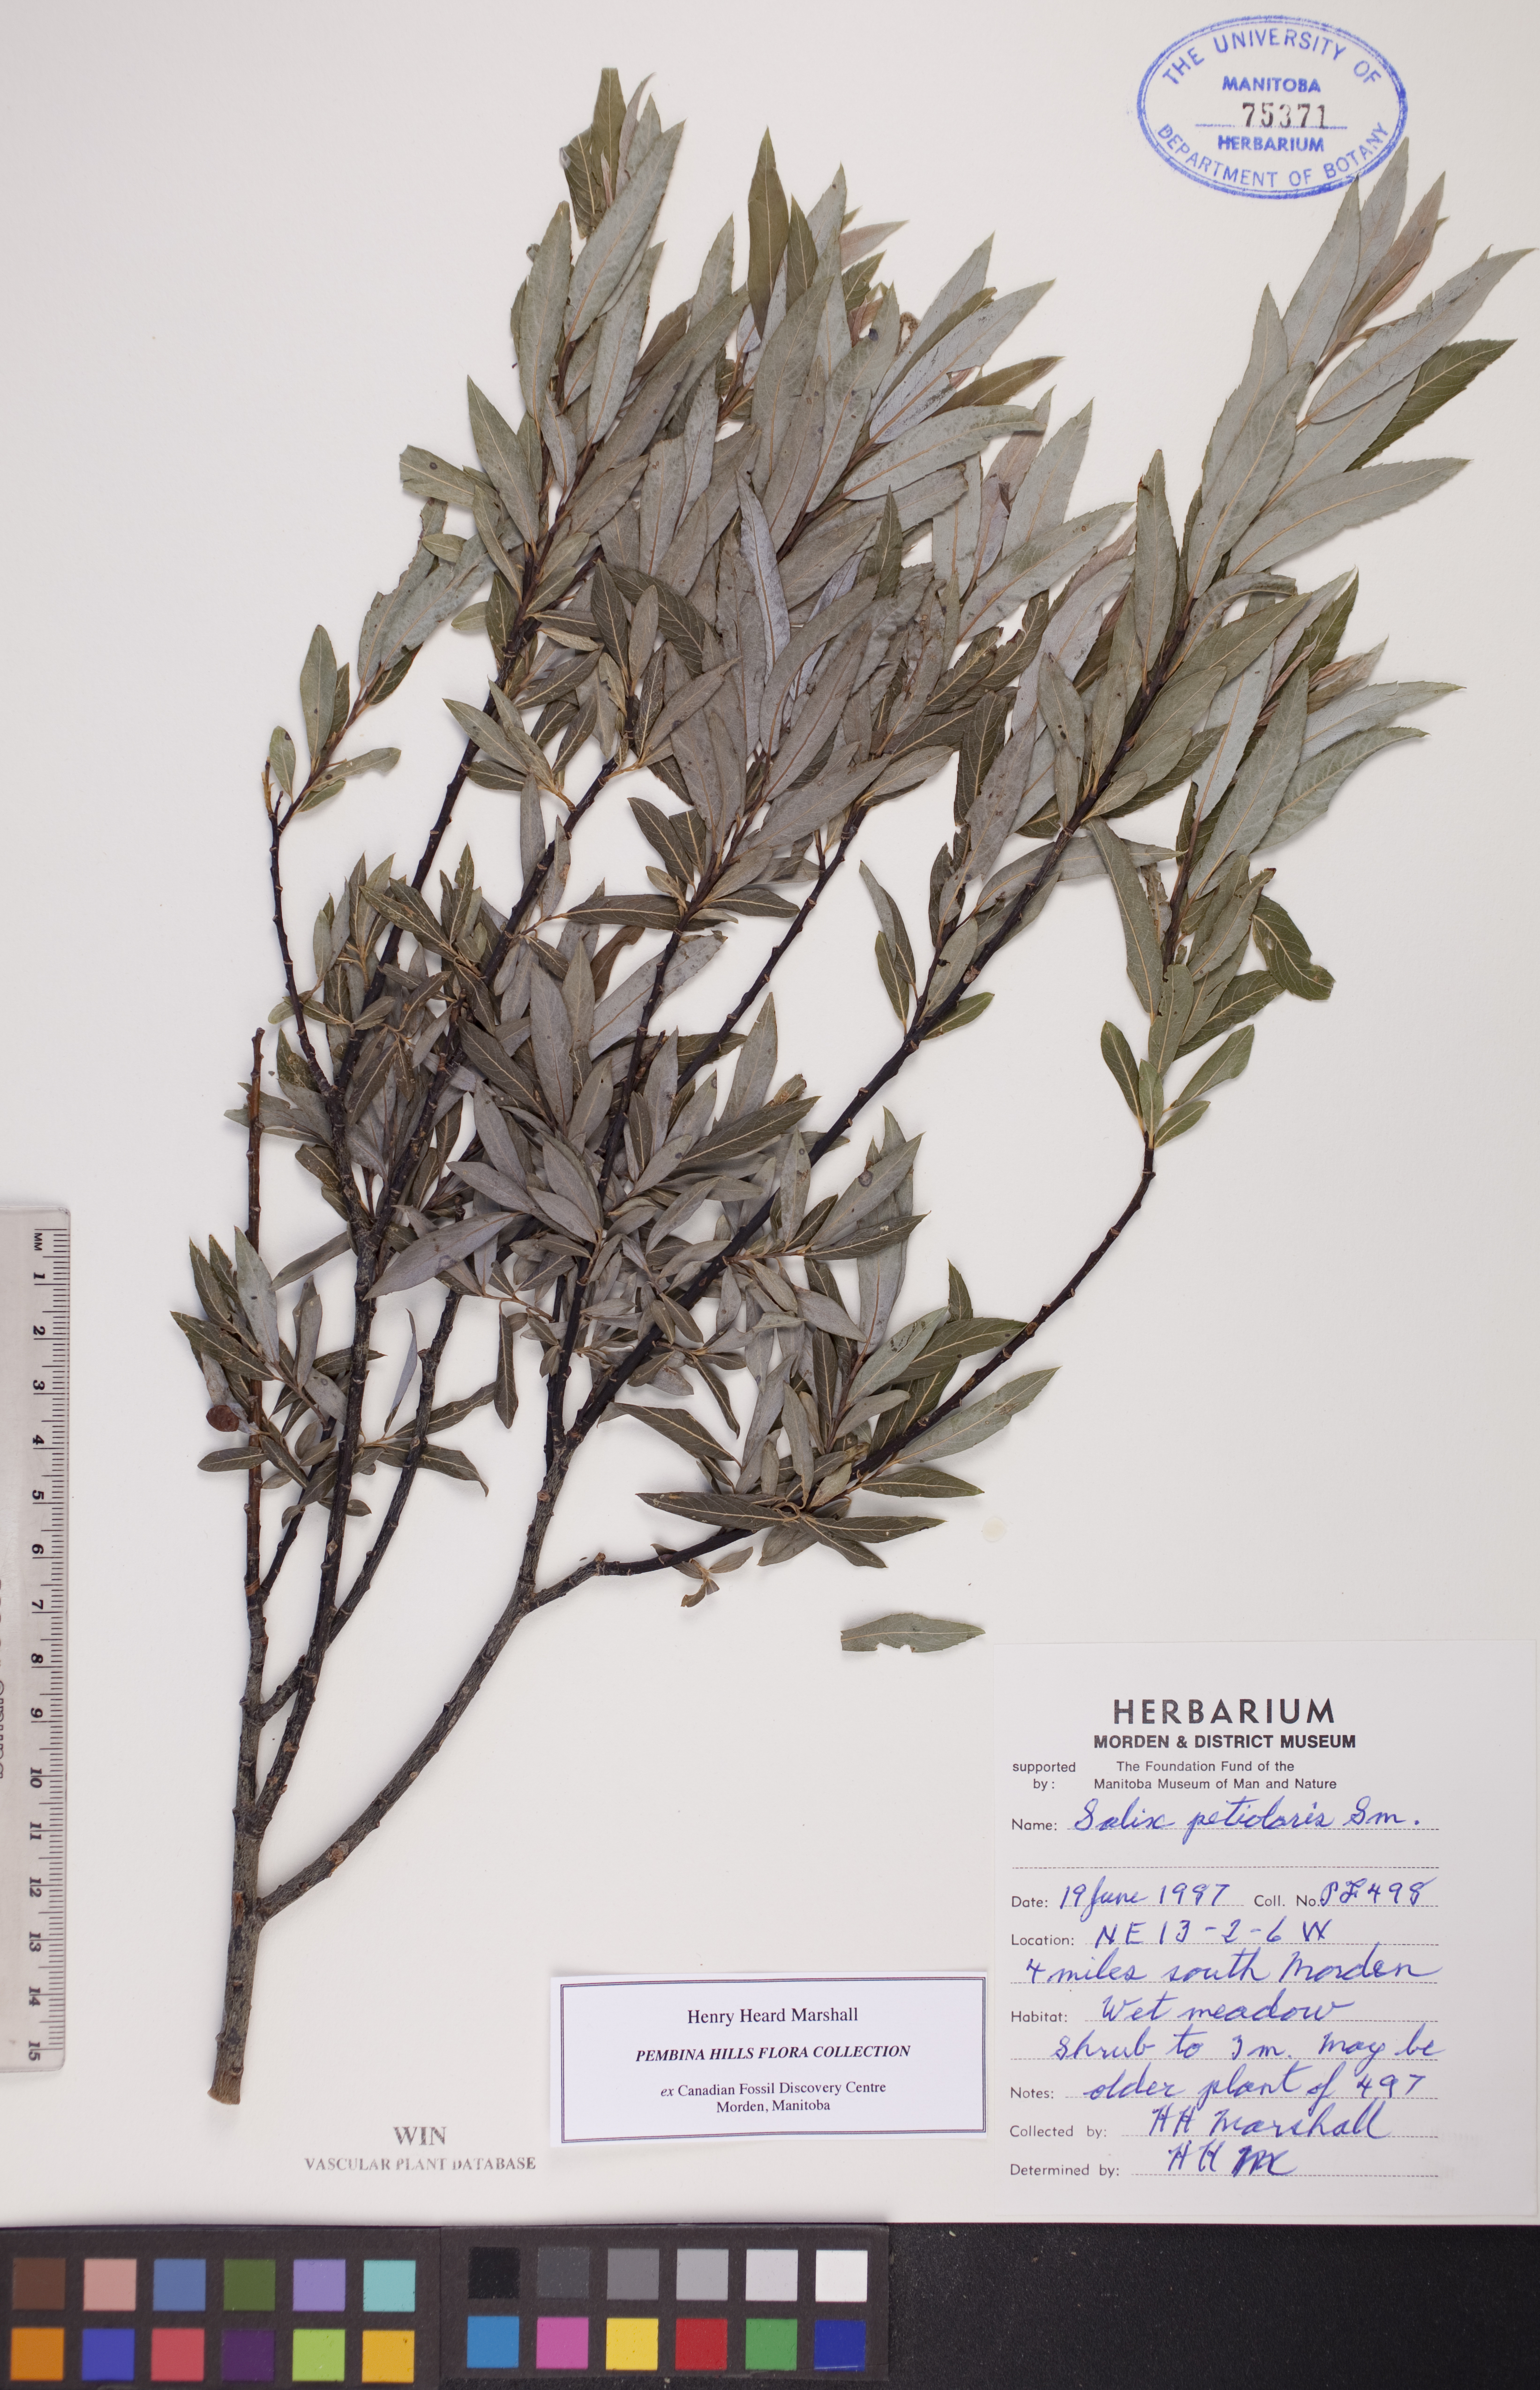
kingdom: Plantae
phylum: Tracheophyta
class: Magnoliopsida
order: Malpighiales
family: Salicaceae
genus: Salix
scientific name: Salix petiolaris
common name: Slender willow
